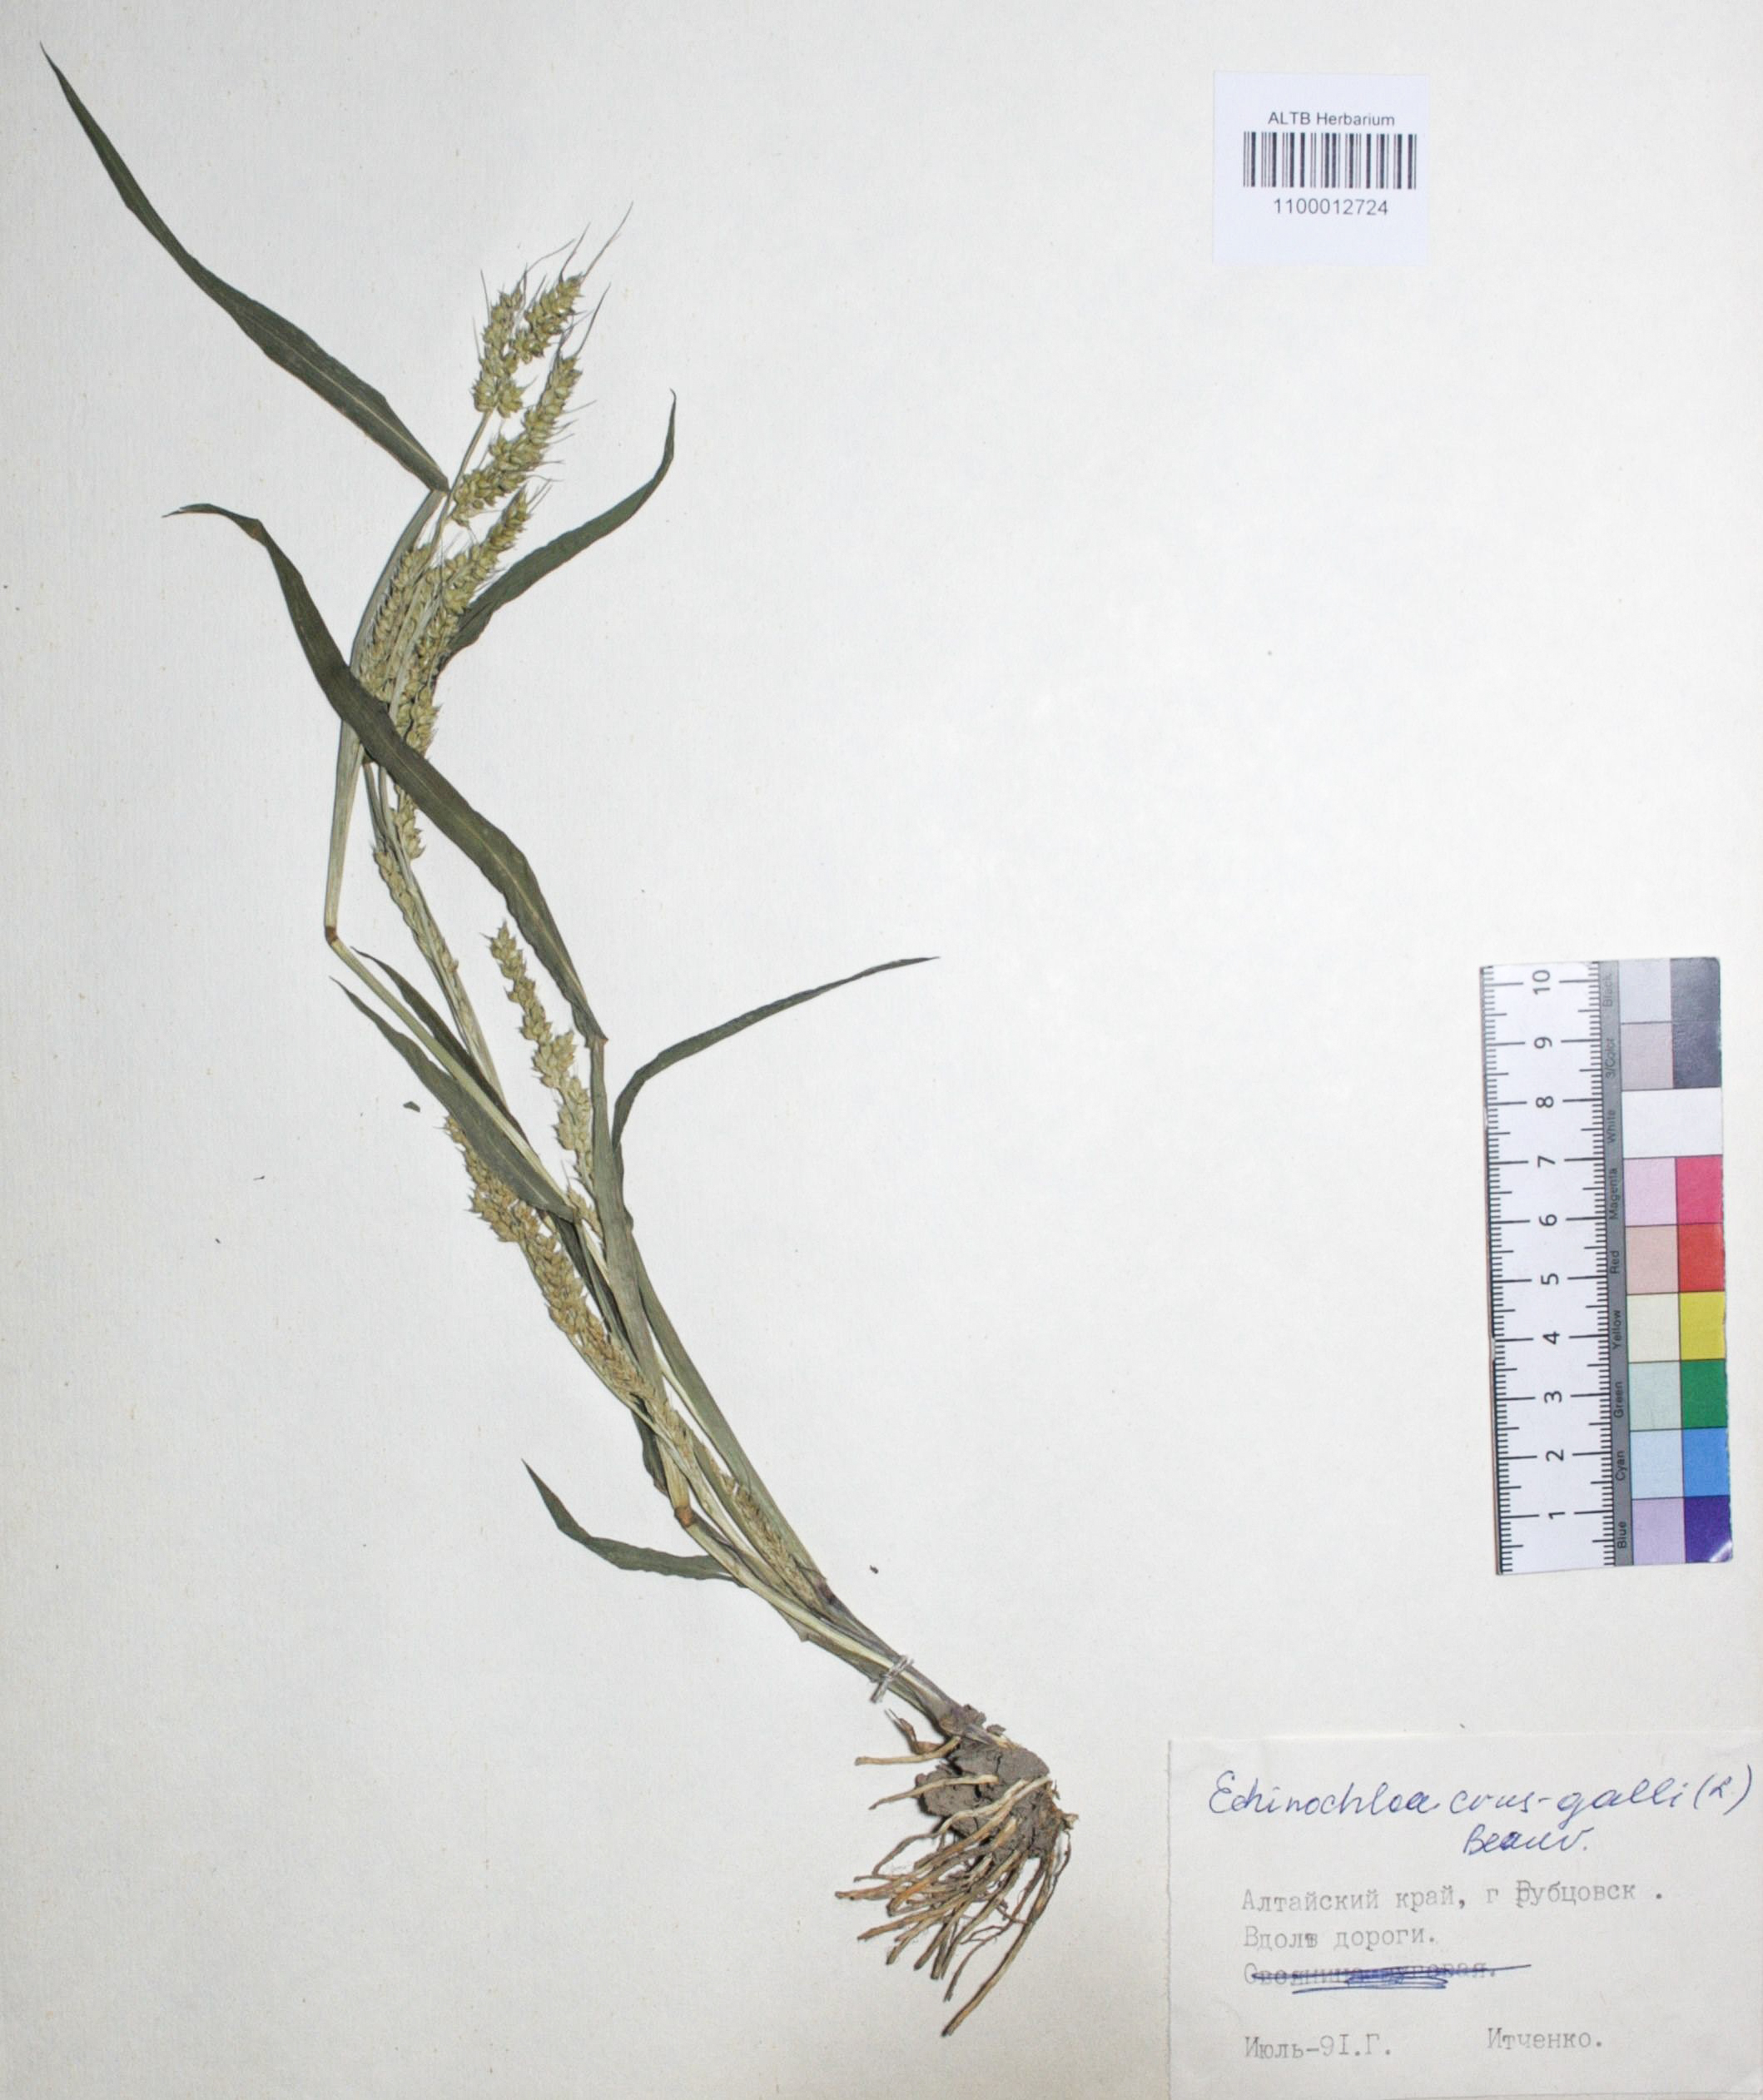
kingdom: Plantae
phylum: Tracheophyta
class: Liliopsida
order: Poales
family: Poaceae
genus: Echinochloa
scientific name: Echinochloa crus-galli
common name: Cockspur
